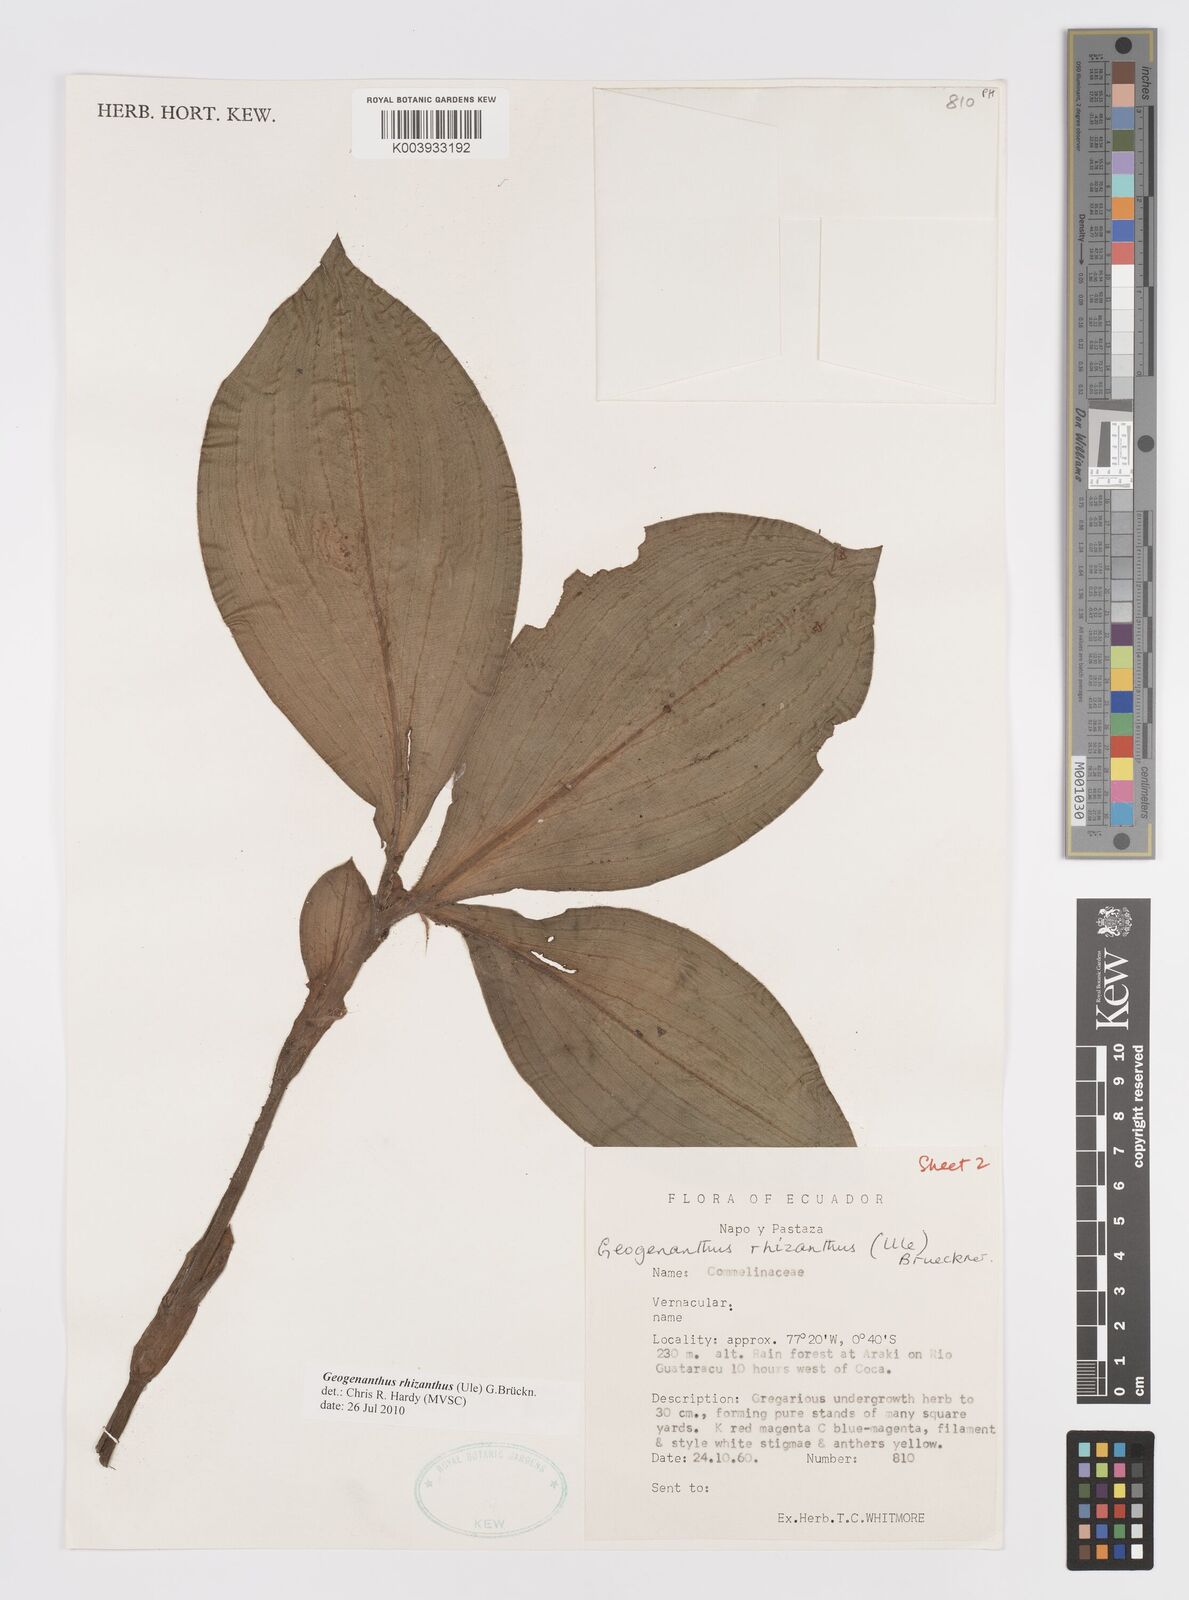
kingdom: Plantae
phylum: Tracheophyta
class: Liliopsida
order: Commelinales
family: Commelinaceae
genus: Geogenanthus
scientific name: Geogenanthus rhizanthus
